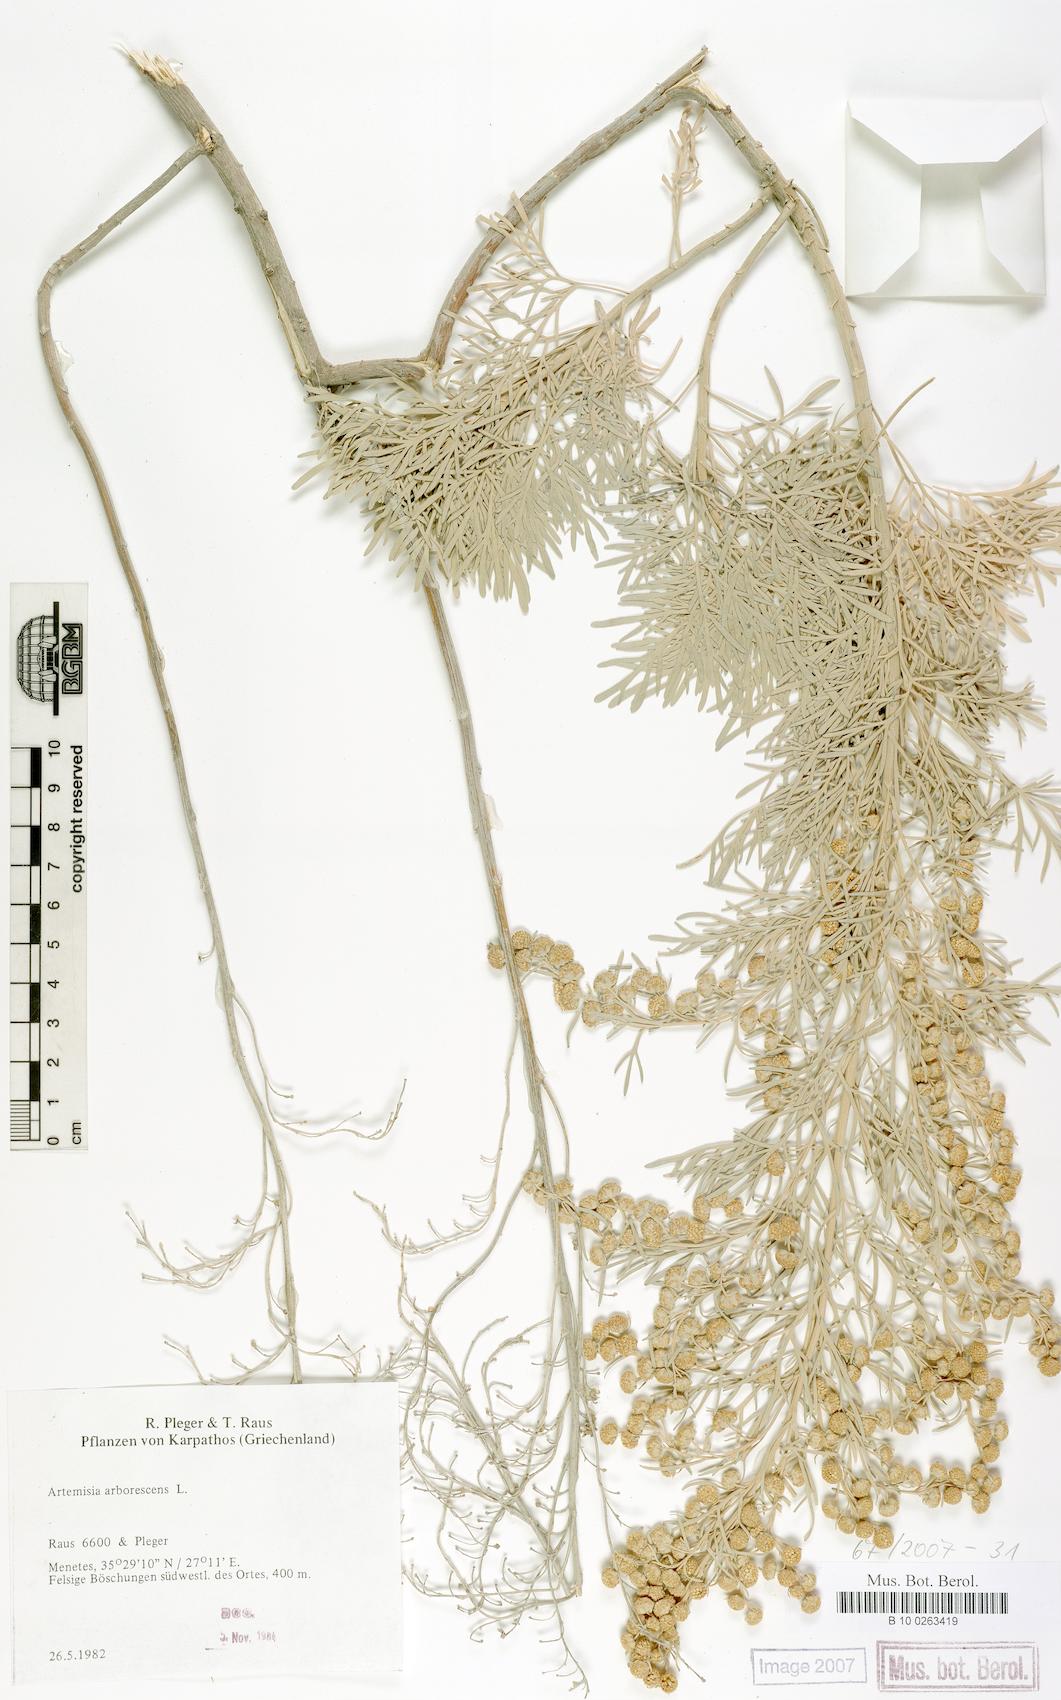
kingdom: Plantae
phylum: Tracheophyta
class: Magnoliopsida
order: Asterales
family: Asteraceae
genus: Artemisia
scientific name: Artemisia arborescens
